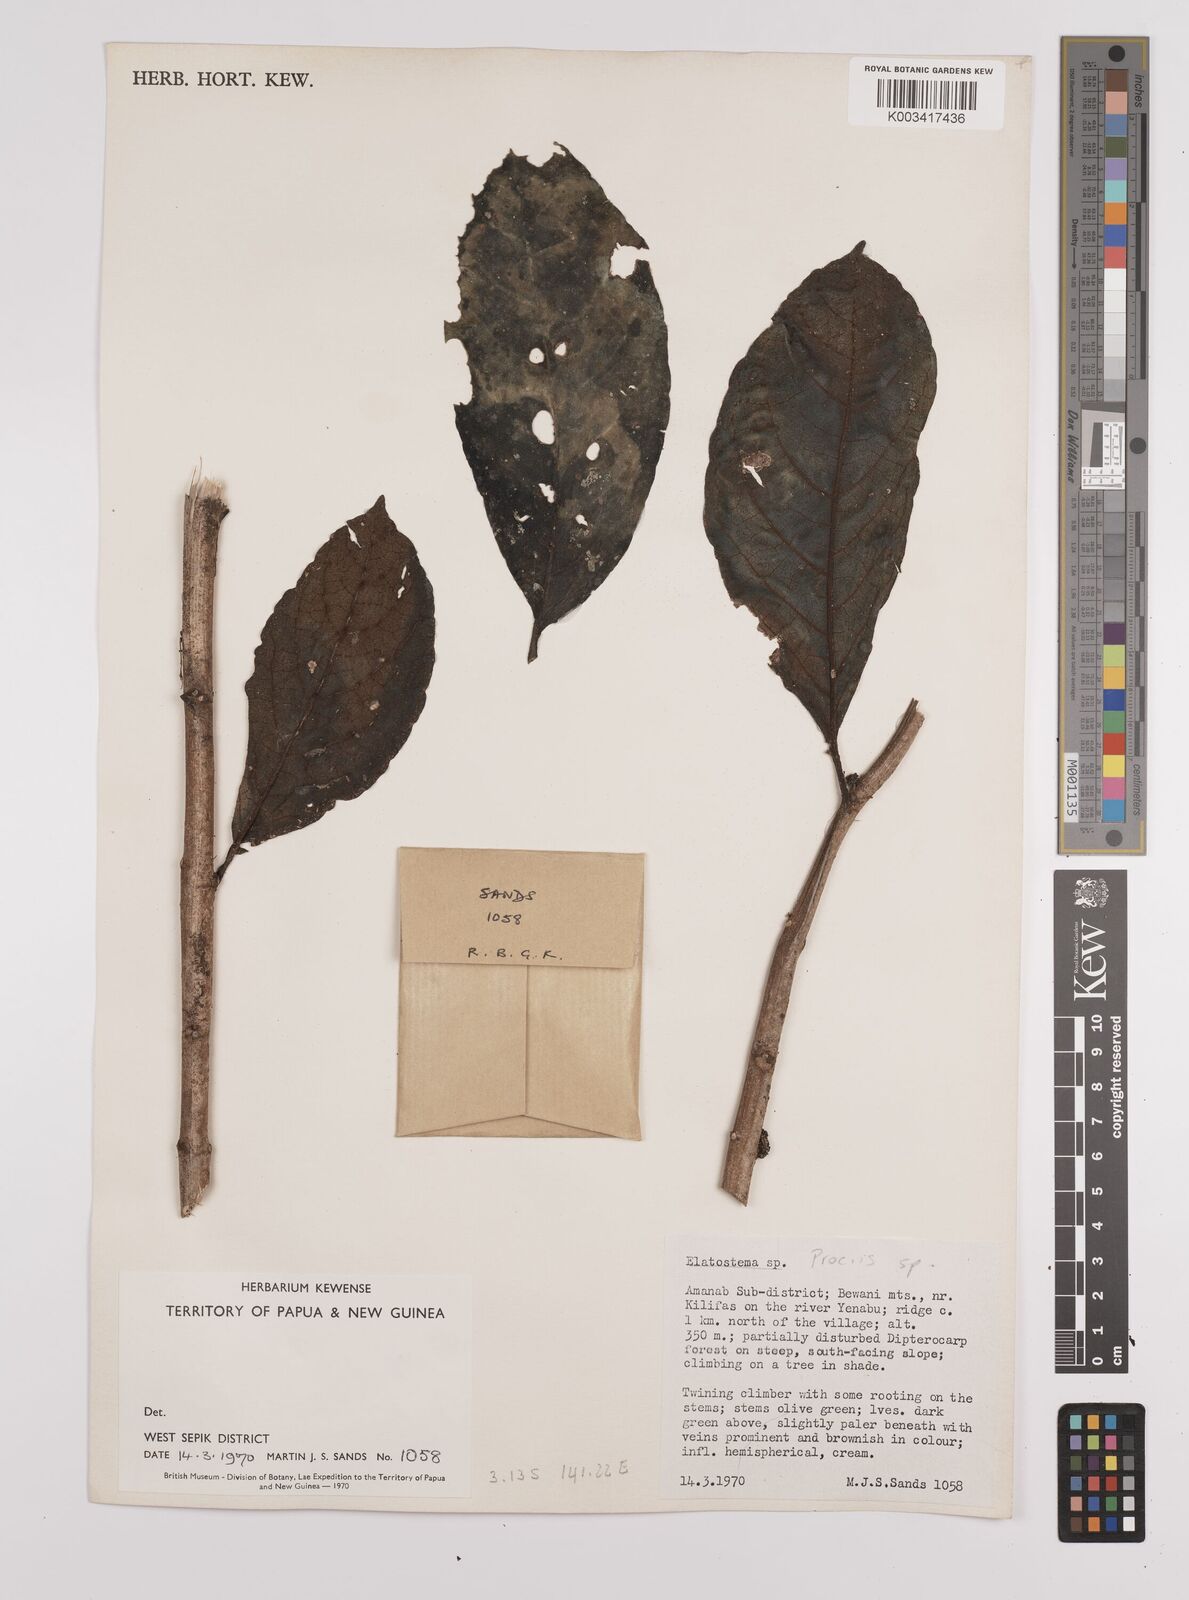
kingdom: Plantae
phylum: Tracheophyta
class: Magnoliopsida
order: Rosales
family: Urticaceae
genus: Procris
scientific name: Procris
